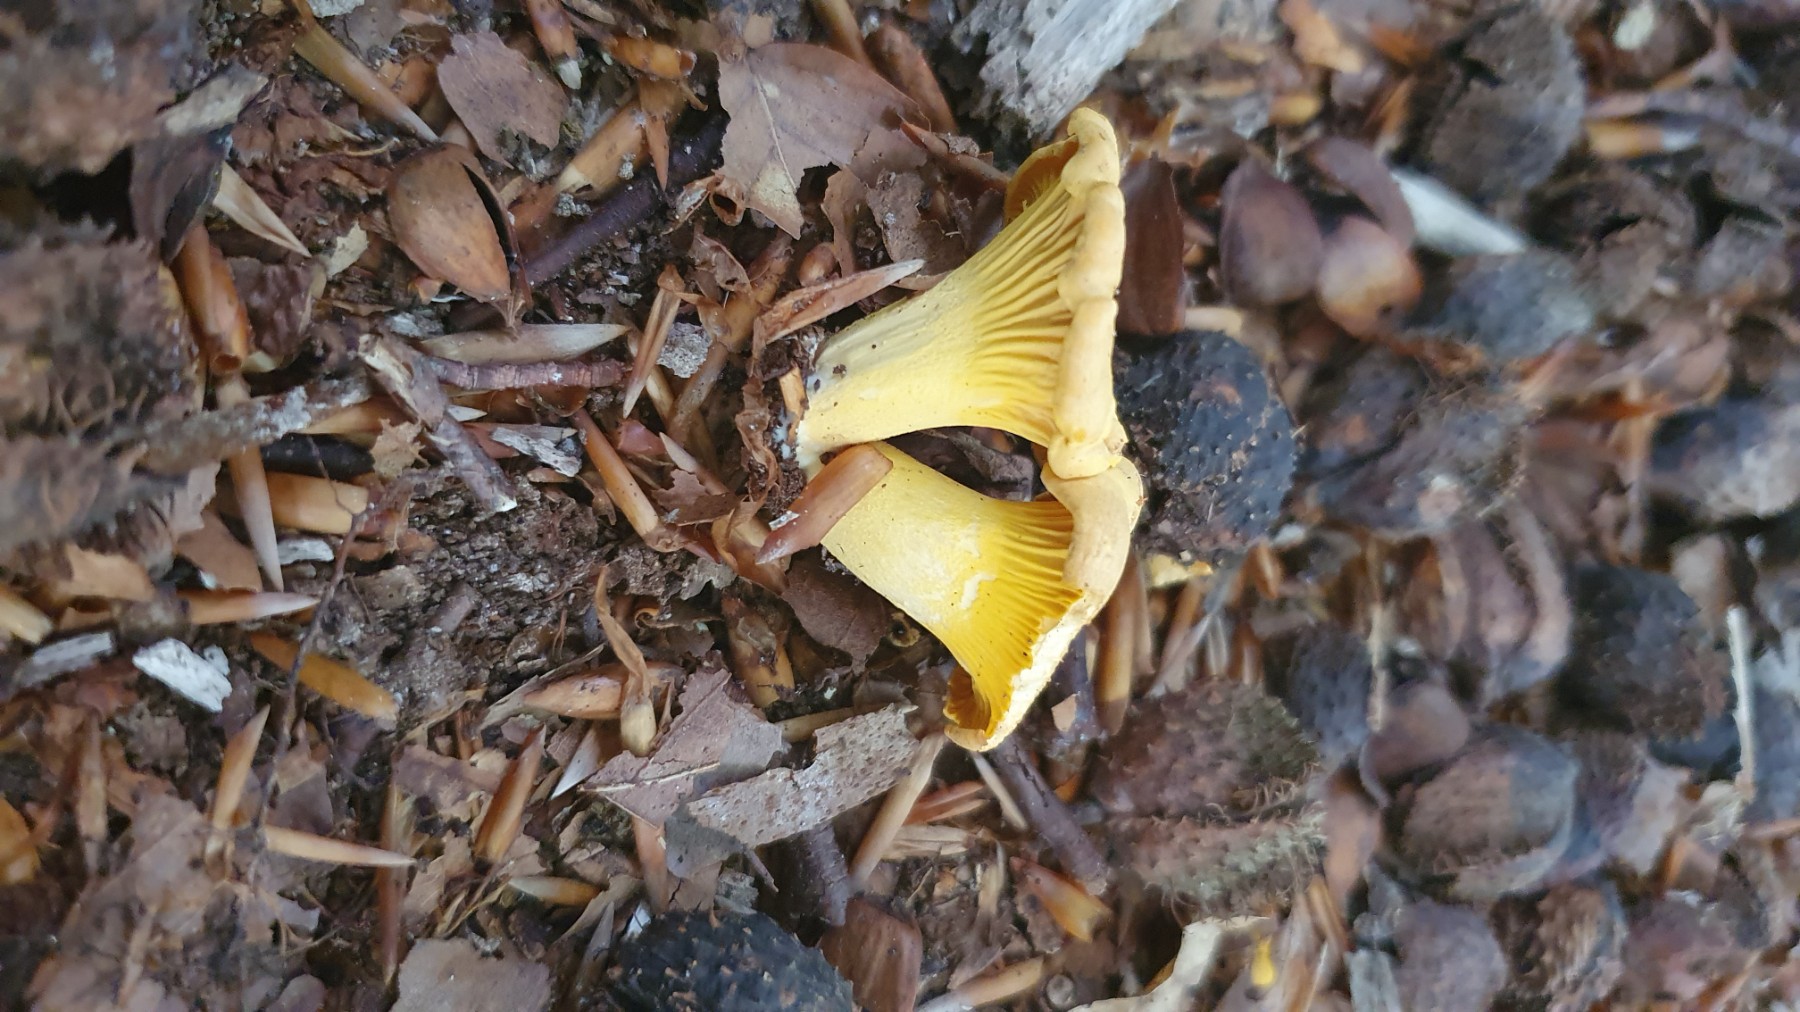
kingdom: Fungi
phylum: Basidiomycota
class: Agaricomycetes
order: Cantharellales
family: Hydnaceae
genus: Cantharellus
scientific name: Cantharellus cibarius
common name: almindelig kantarel
